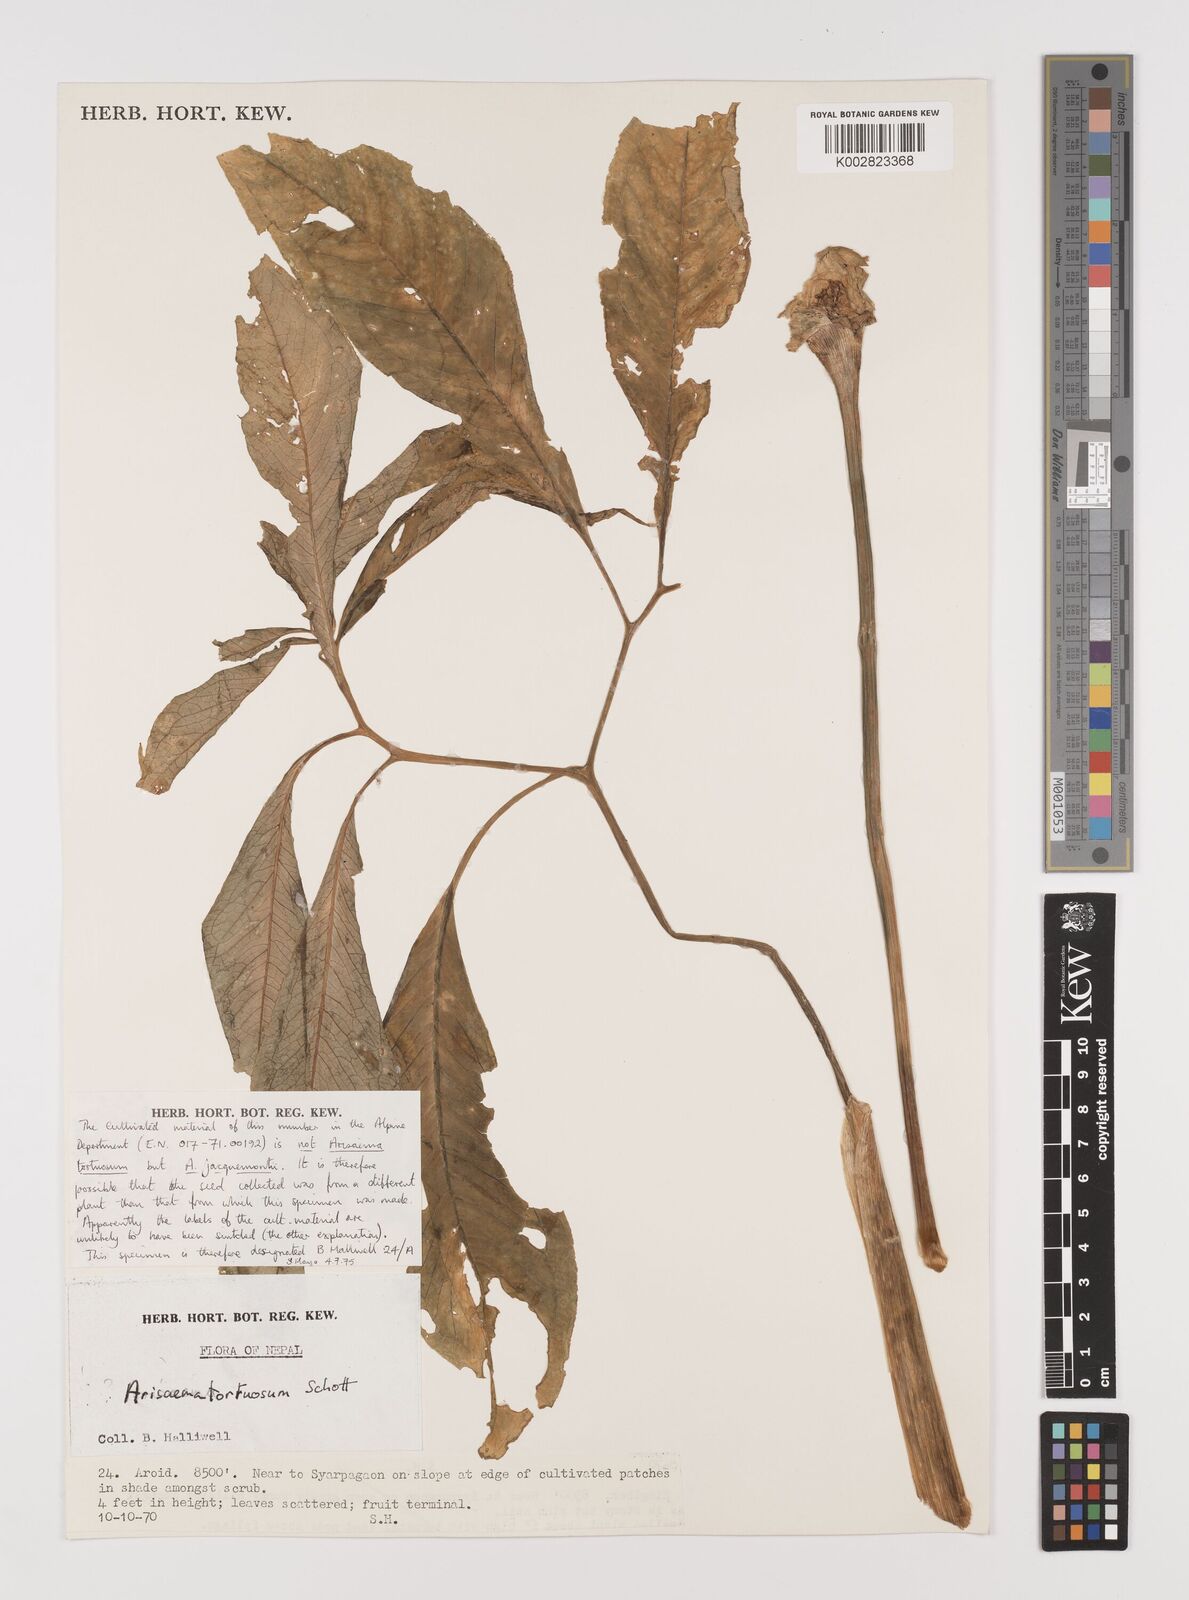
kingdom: Plantae
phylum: Tracheophyta
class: Liliopsida
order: Alismatales
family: Araceae
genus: Arisaema
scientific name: Arisaema tortuosum
